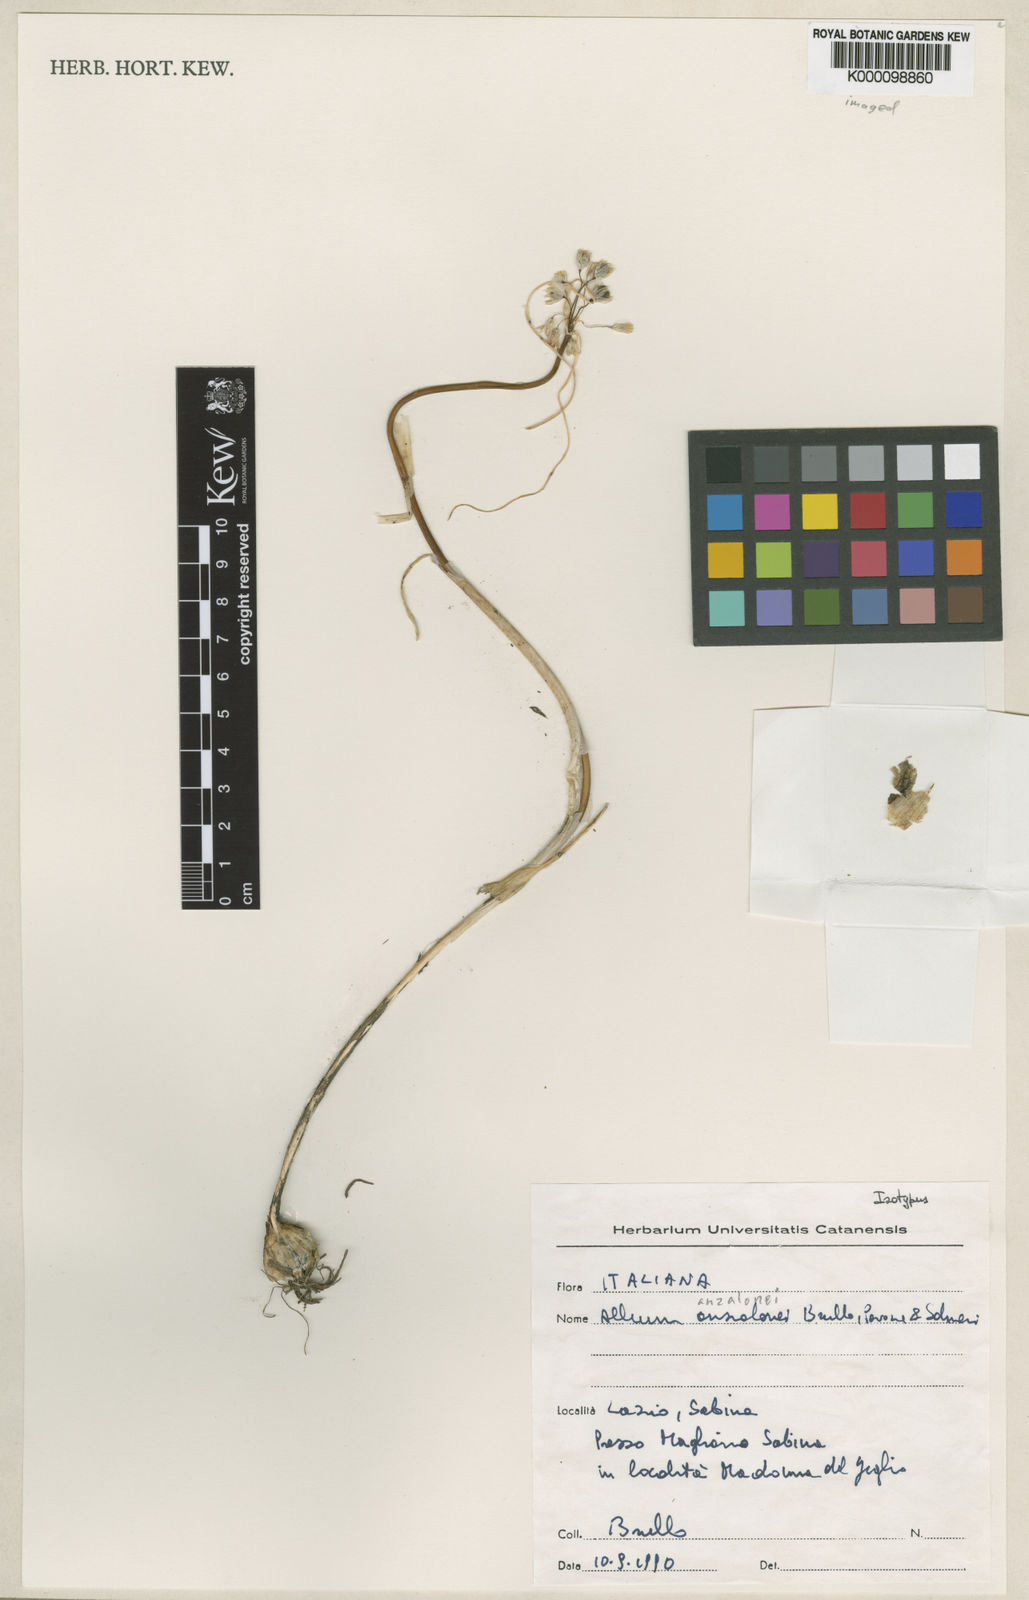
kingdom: Plantae
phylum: Tracheophyta
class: Liliopsida
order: Asparagales
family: Amaryllidaceae
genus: Allium
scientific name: Allium
